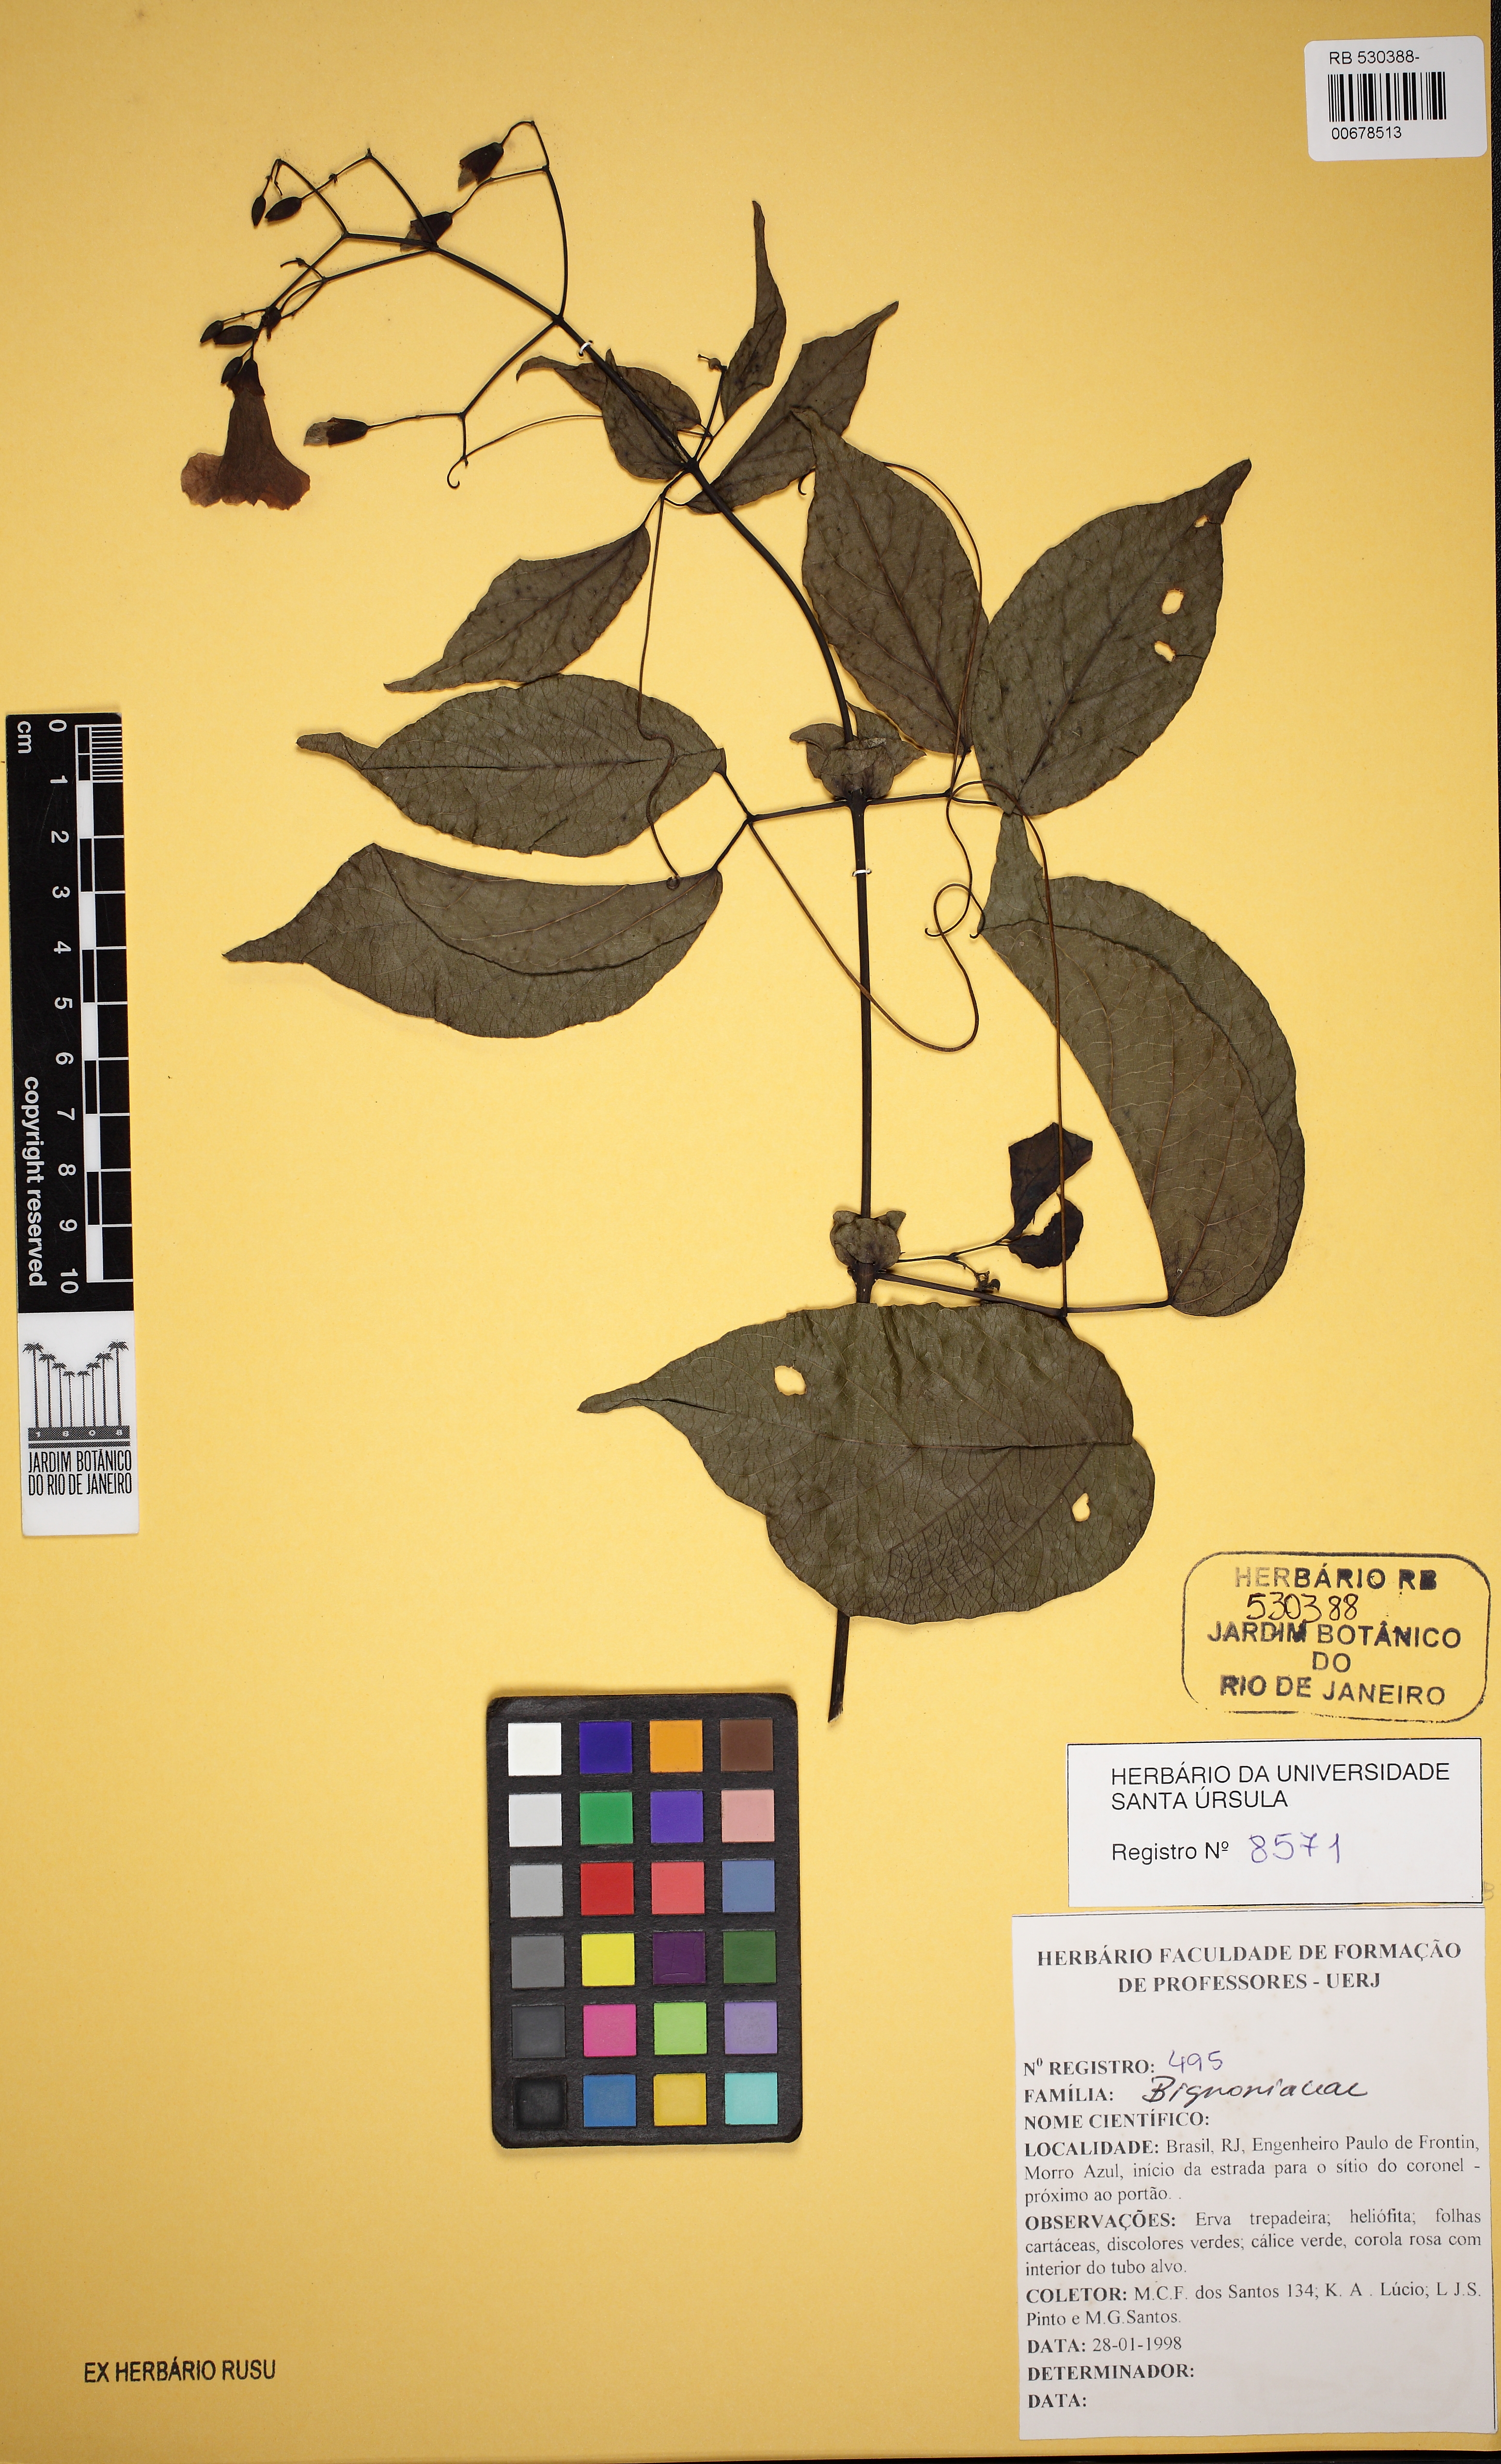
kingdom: Plantae
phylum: Tracheophyta
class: Magnoliopsida
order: Lamiales
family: Bignoniaceae
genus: Tanaecium
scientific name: Tanaecium selloi
